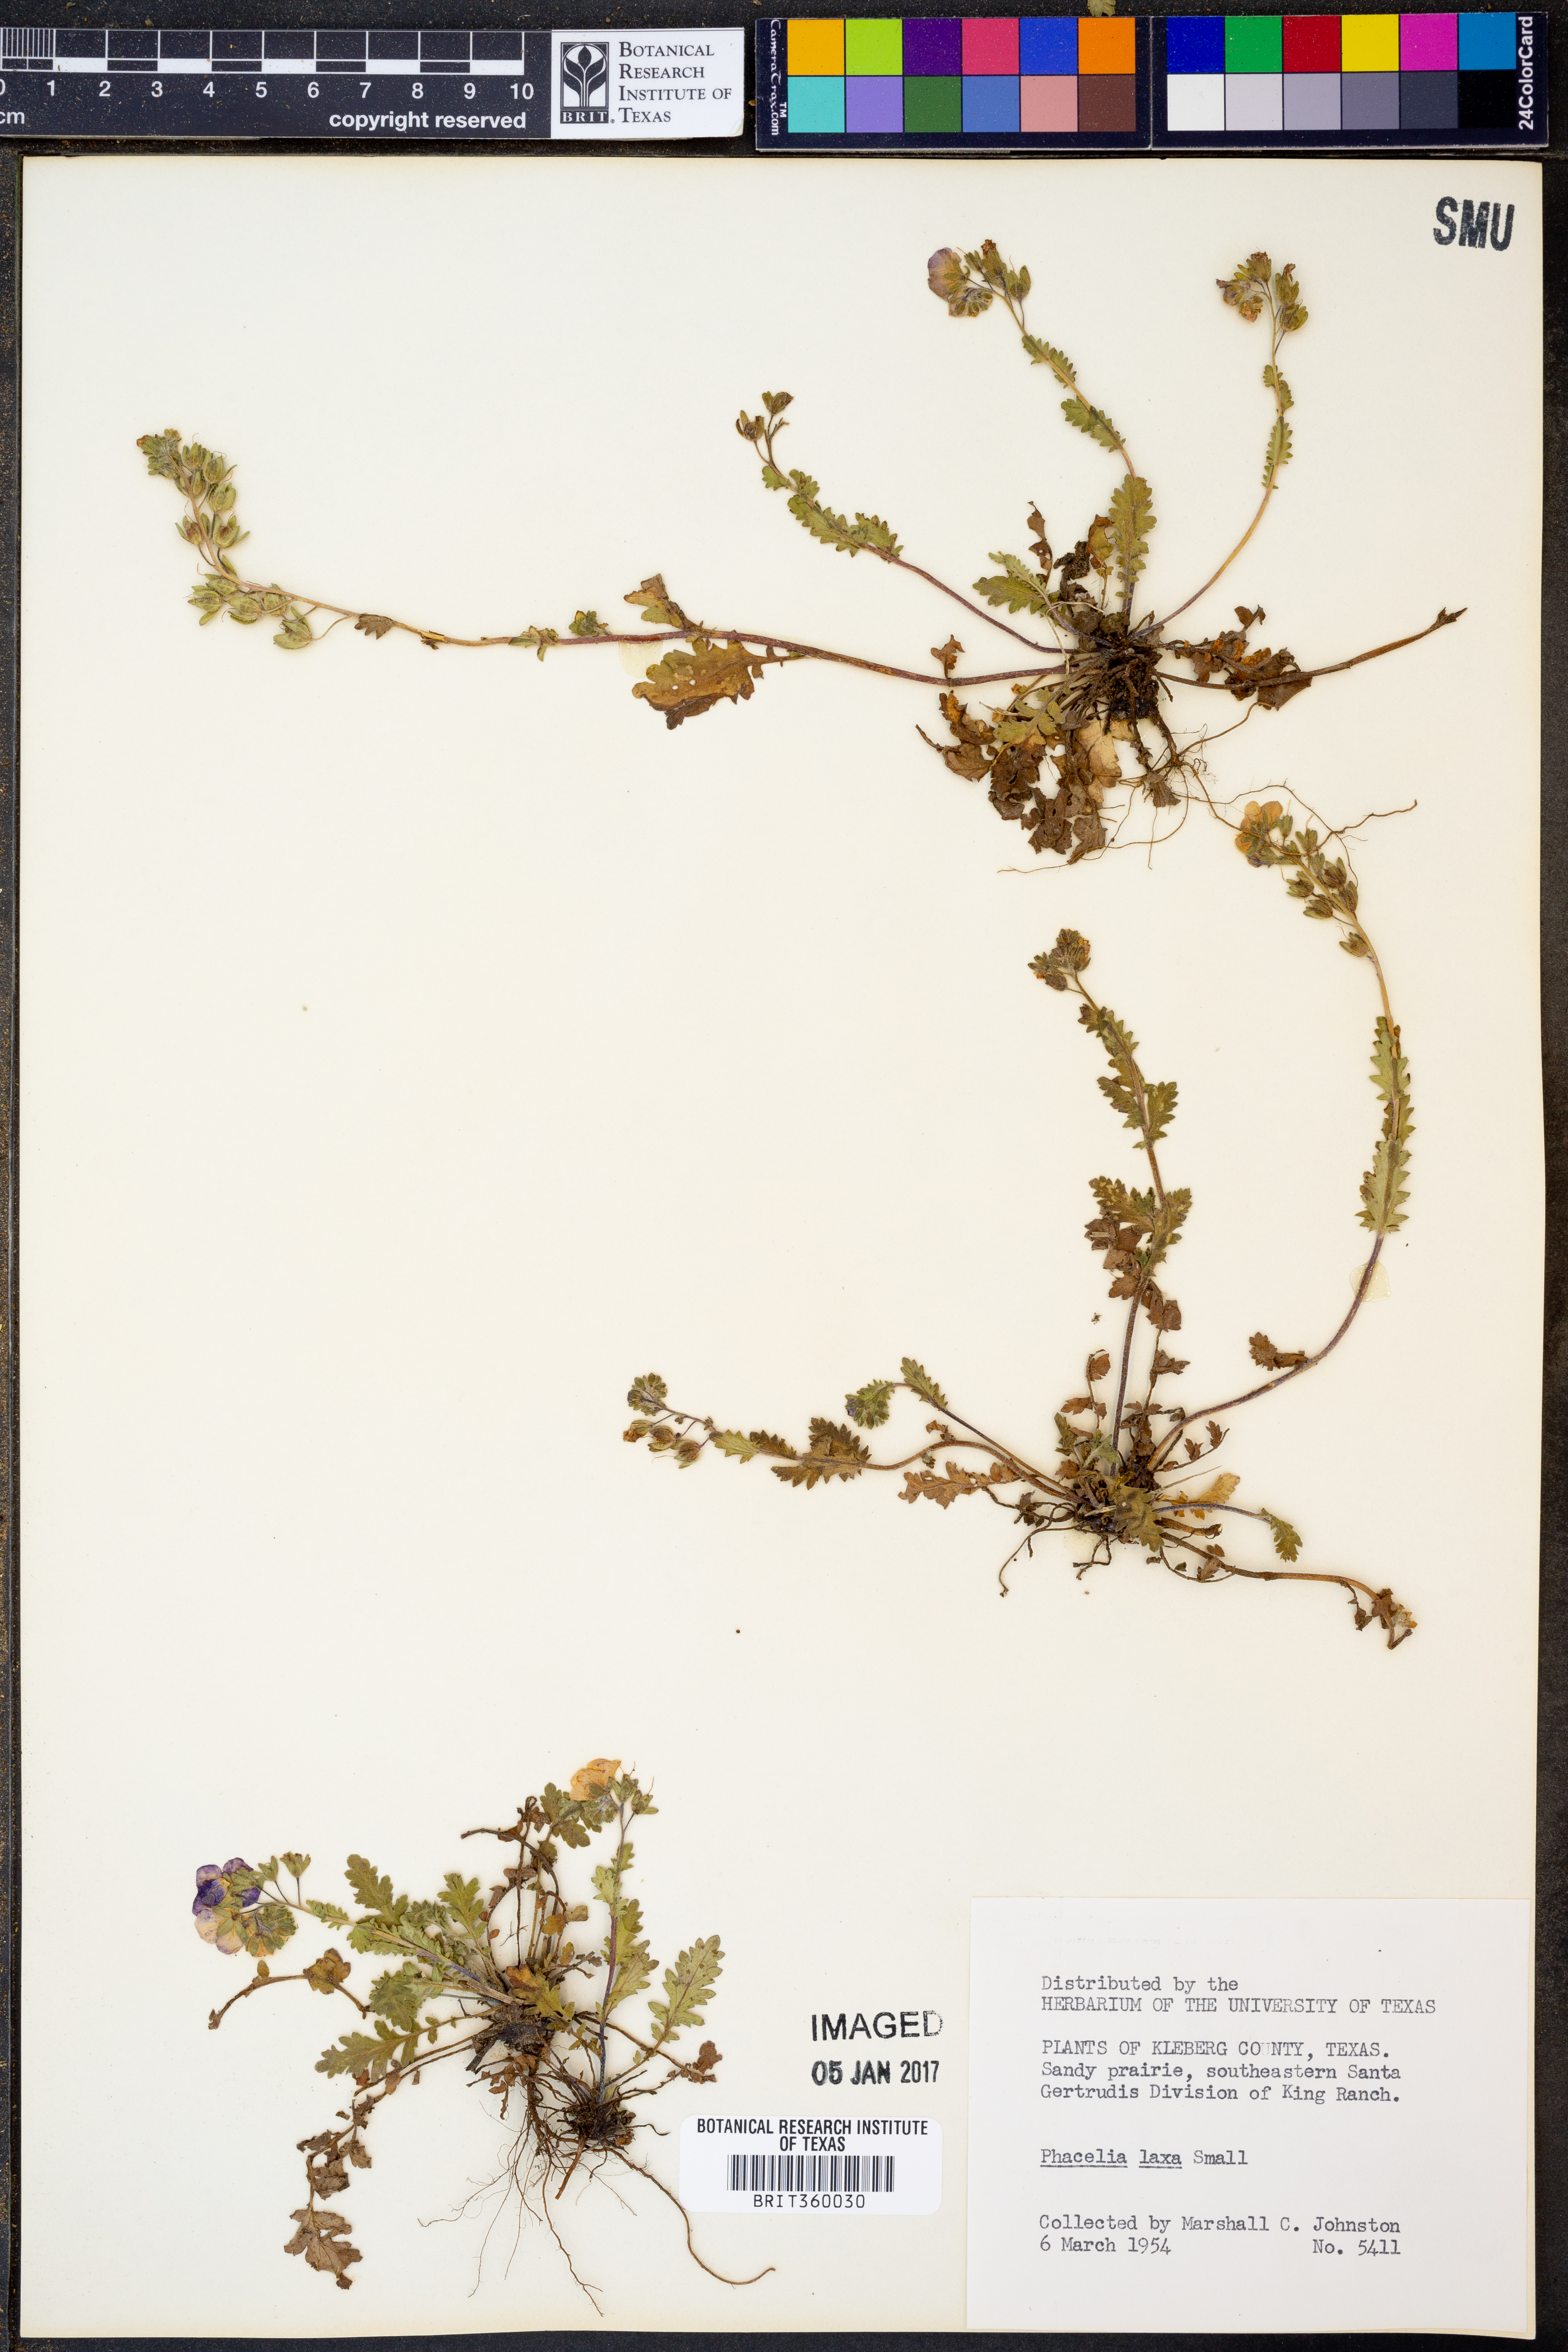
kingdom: Plantae
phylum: Tracheophyta
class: Magnoliopsida
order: Boraginales
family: Hydrophyllaceae
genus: Phacelia
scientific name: Phacelia laxa
